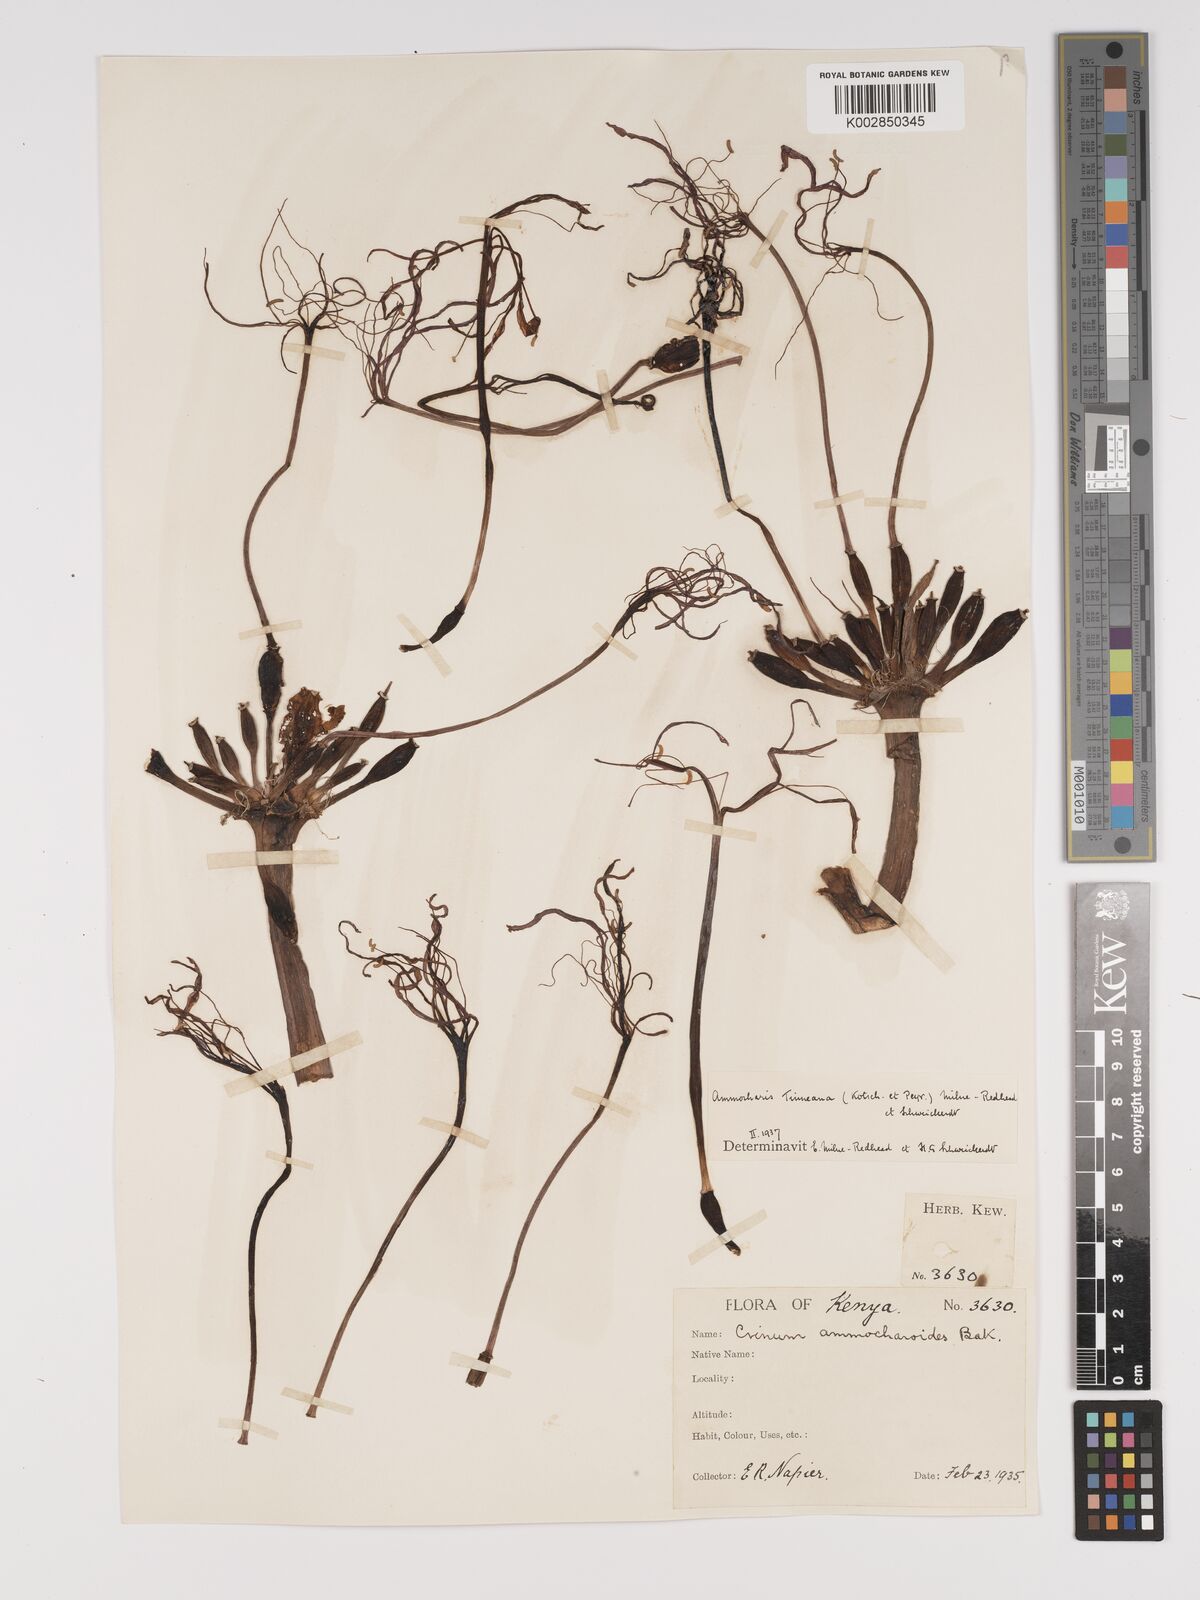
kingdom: Plantae
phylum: Tracheophyta
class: Liliopsida
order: Asparagales
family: Amaryllidaceae
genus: Ammocharis
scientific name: Ammocharis tinneana
